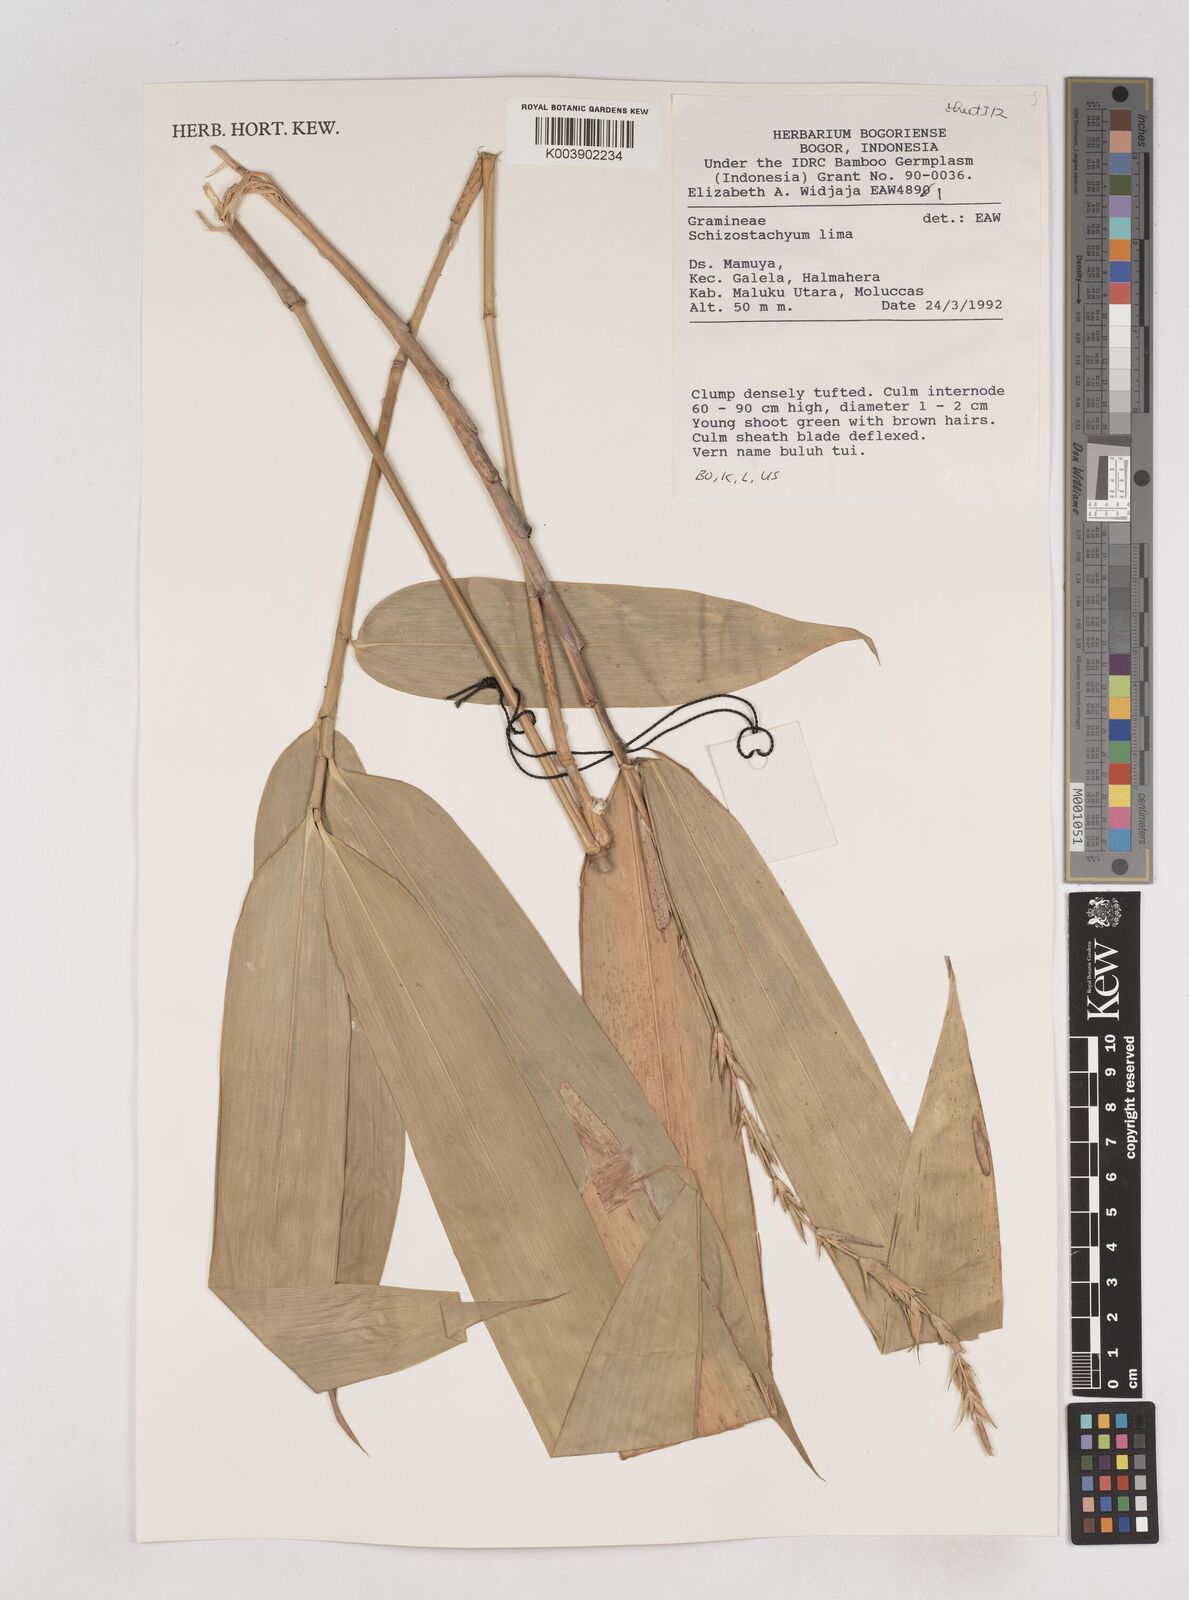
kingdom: Plantae
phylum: Tracheophyta
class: Liliopsida
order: Poales
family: Poaceae
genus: Schizostachyum
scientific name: Schizostachyum lima
